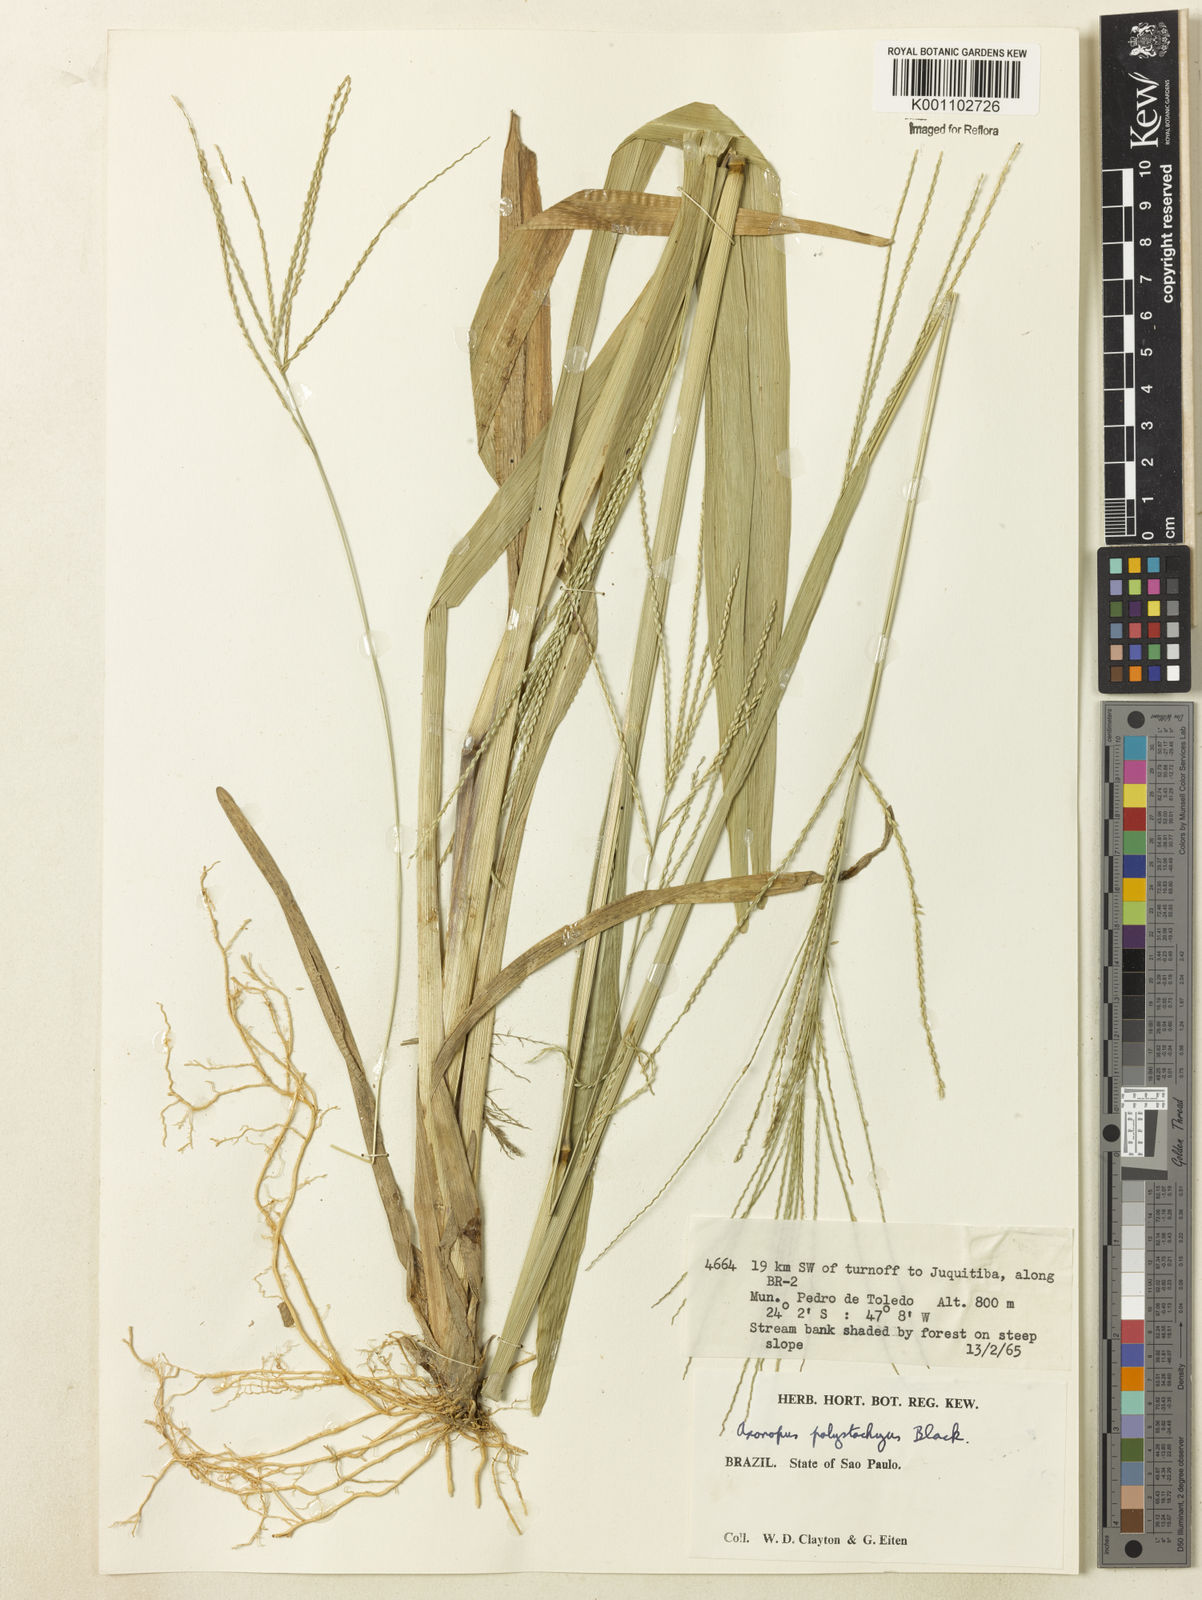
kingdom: Plantae
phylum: Tracheophyta
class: Liliopsida
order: Poales
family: Poaceae
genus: Axonopus
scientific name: Axonopus polystachyus
